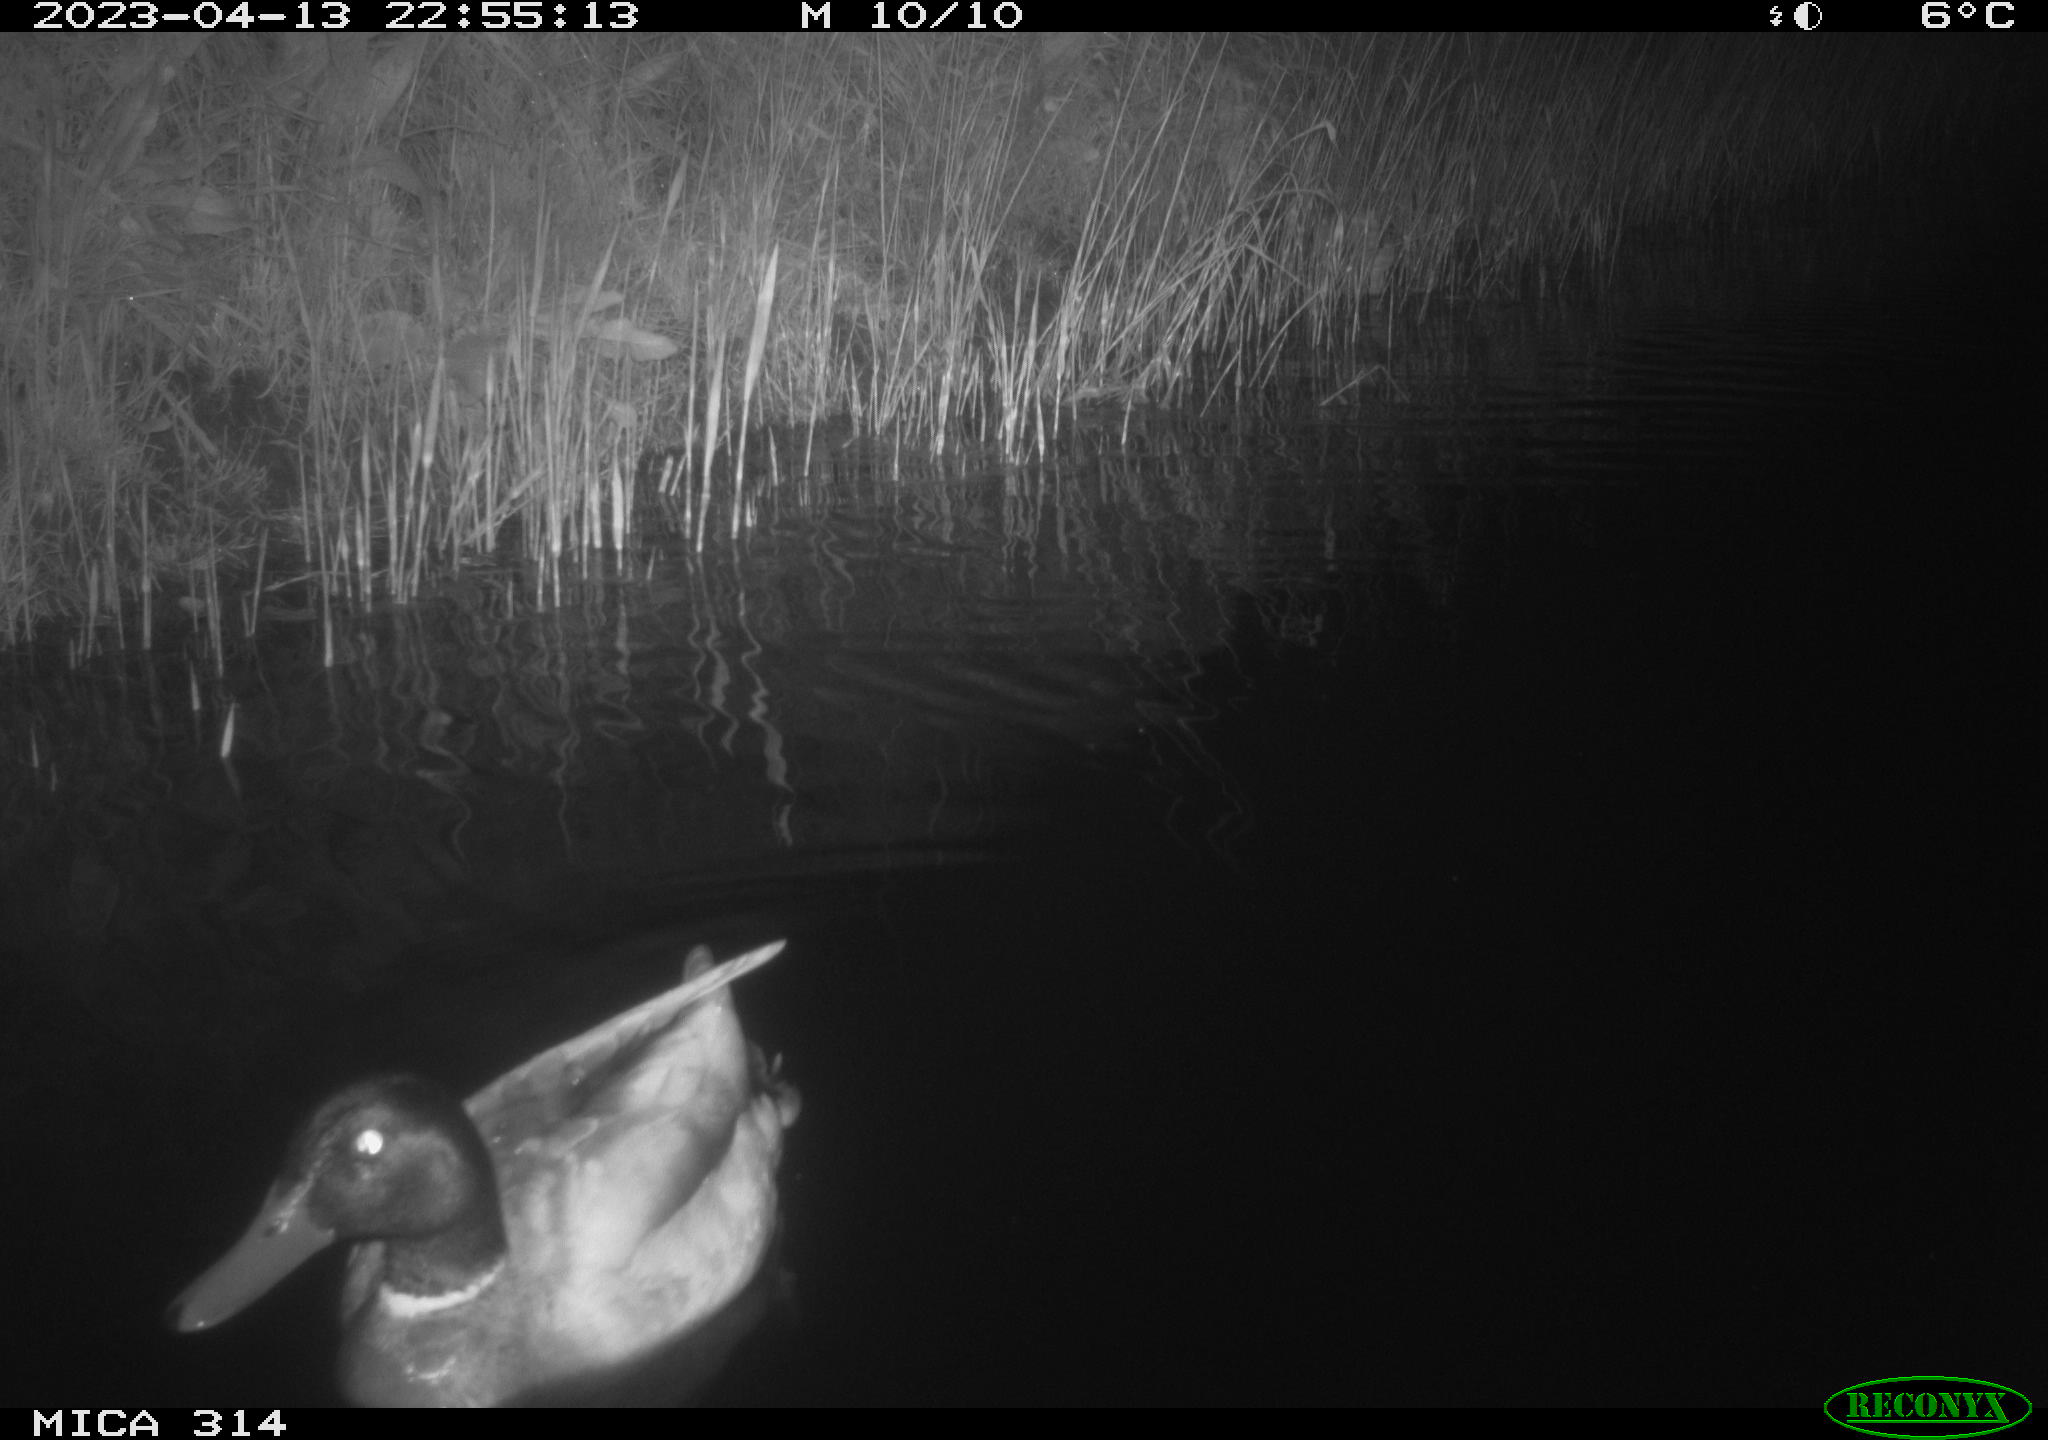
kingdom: Animalia
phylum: Chordata
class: Aves
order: Anseriformes
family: Anatidae
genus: Anas
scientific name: Anas
